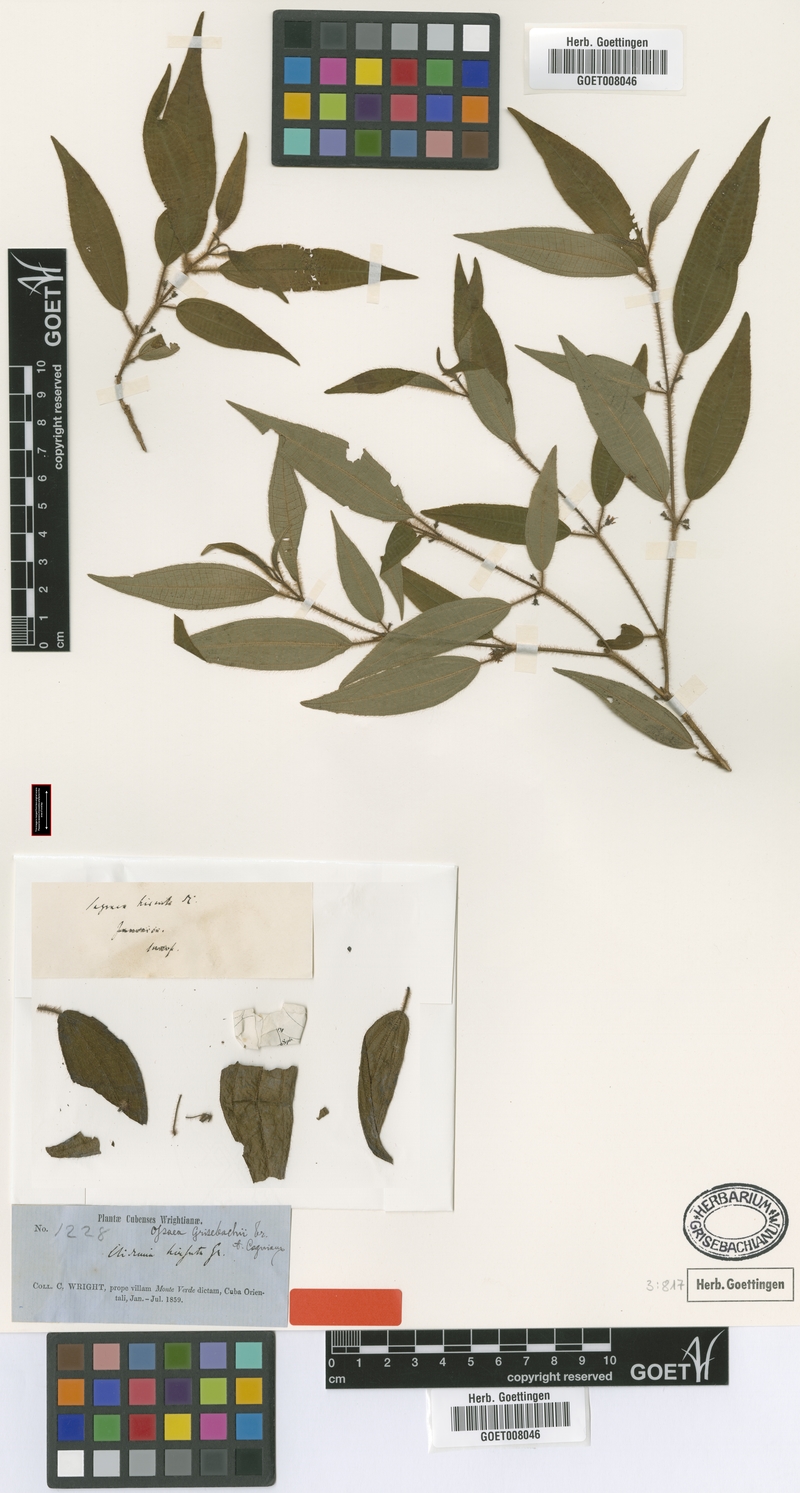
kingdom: Plantae
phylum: Tracheophyta
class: Magnoliopsida
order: Myrtales
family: Melastomataceae
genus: Miconia
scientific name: Miconia capillinervis
